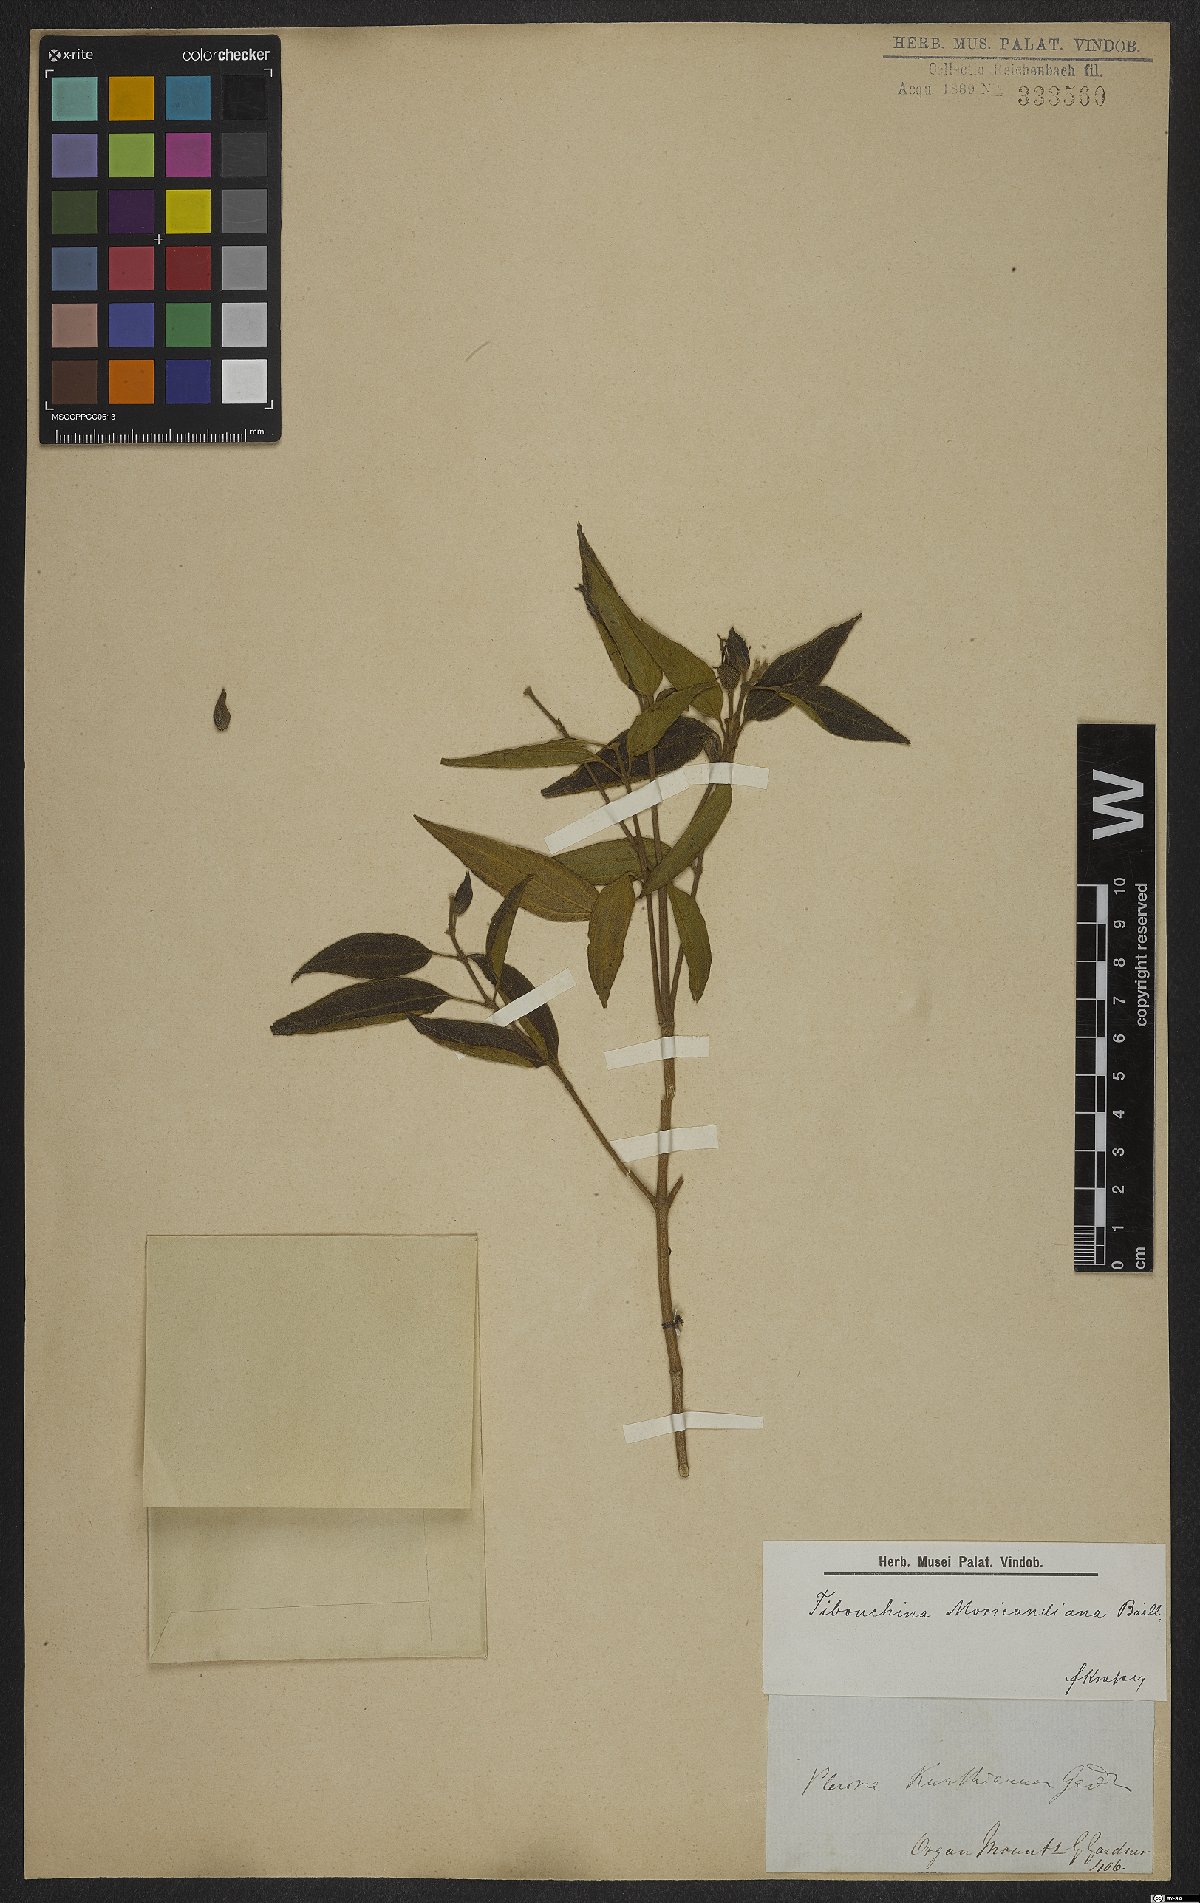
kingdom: Plantae
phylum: Tracheophyta
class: Magnoliopsida
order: Myrtales
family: Melastomataceae
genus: Pleroma
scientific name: Pleroma gaudichaudianum
